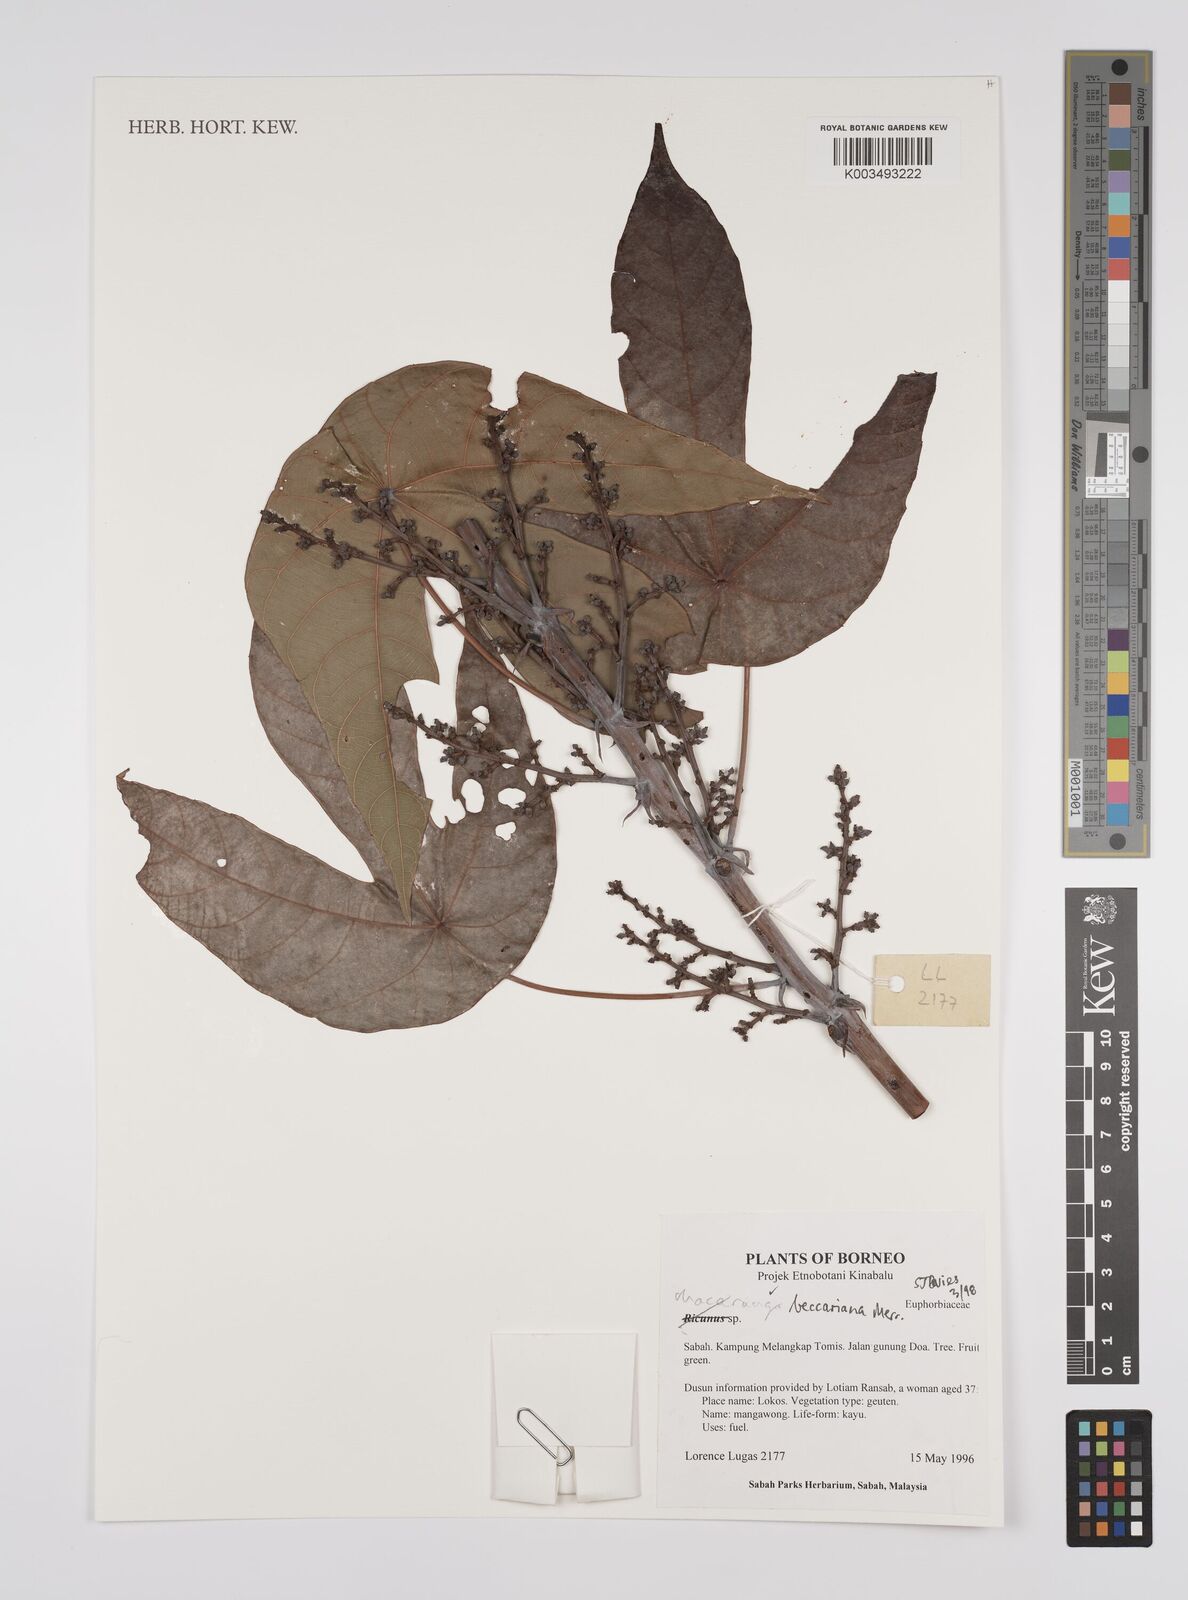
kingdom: Plantae
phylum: Tracheophyta
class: Magnoliopsida
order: Malpighiales
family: Euphorbiaceae
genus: Macaranga
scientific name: Macaranga beccariana
